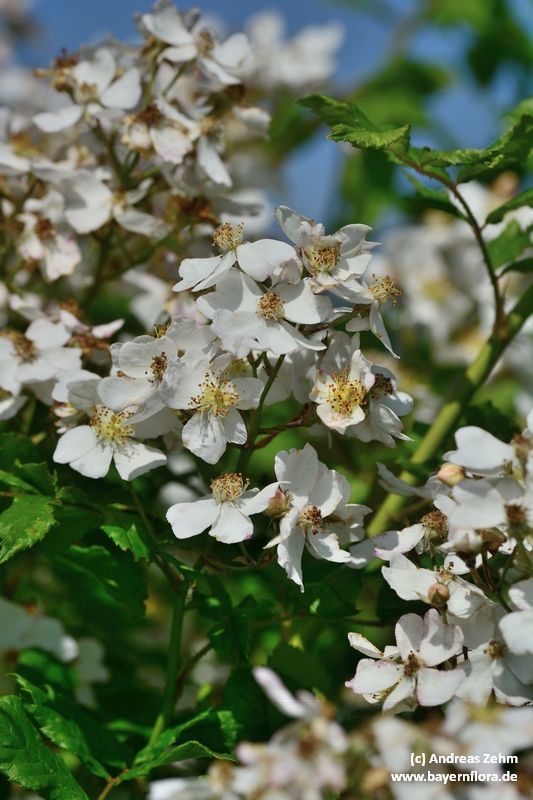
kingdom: Plantae
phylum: Tracheophyta
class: Magnoliopsida
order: Rosales
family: Rosaceae
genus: Rosa
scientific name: Rosa multiflora
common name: Multiflora rose
